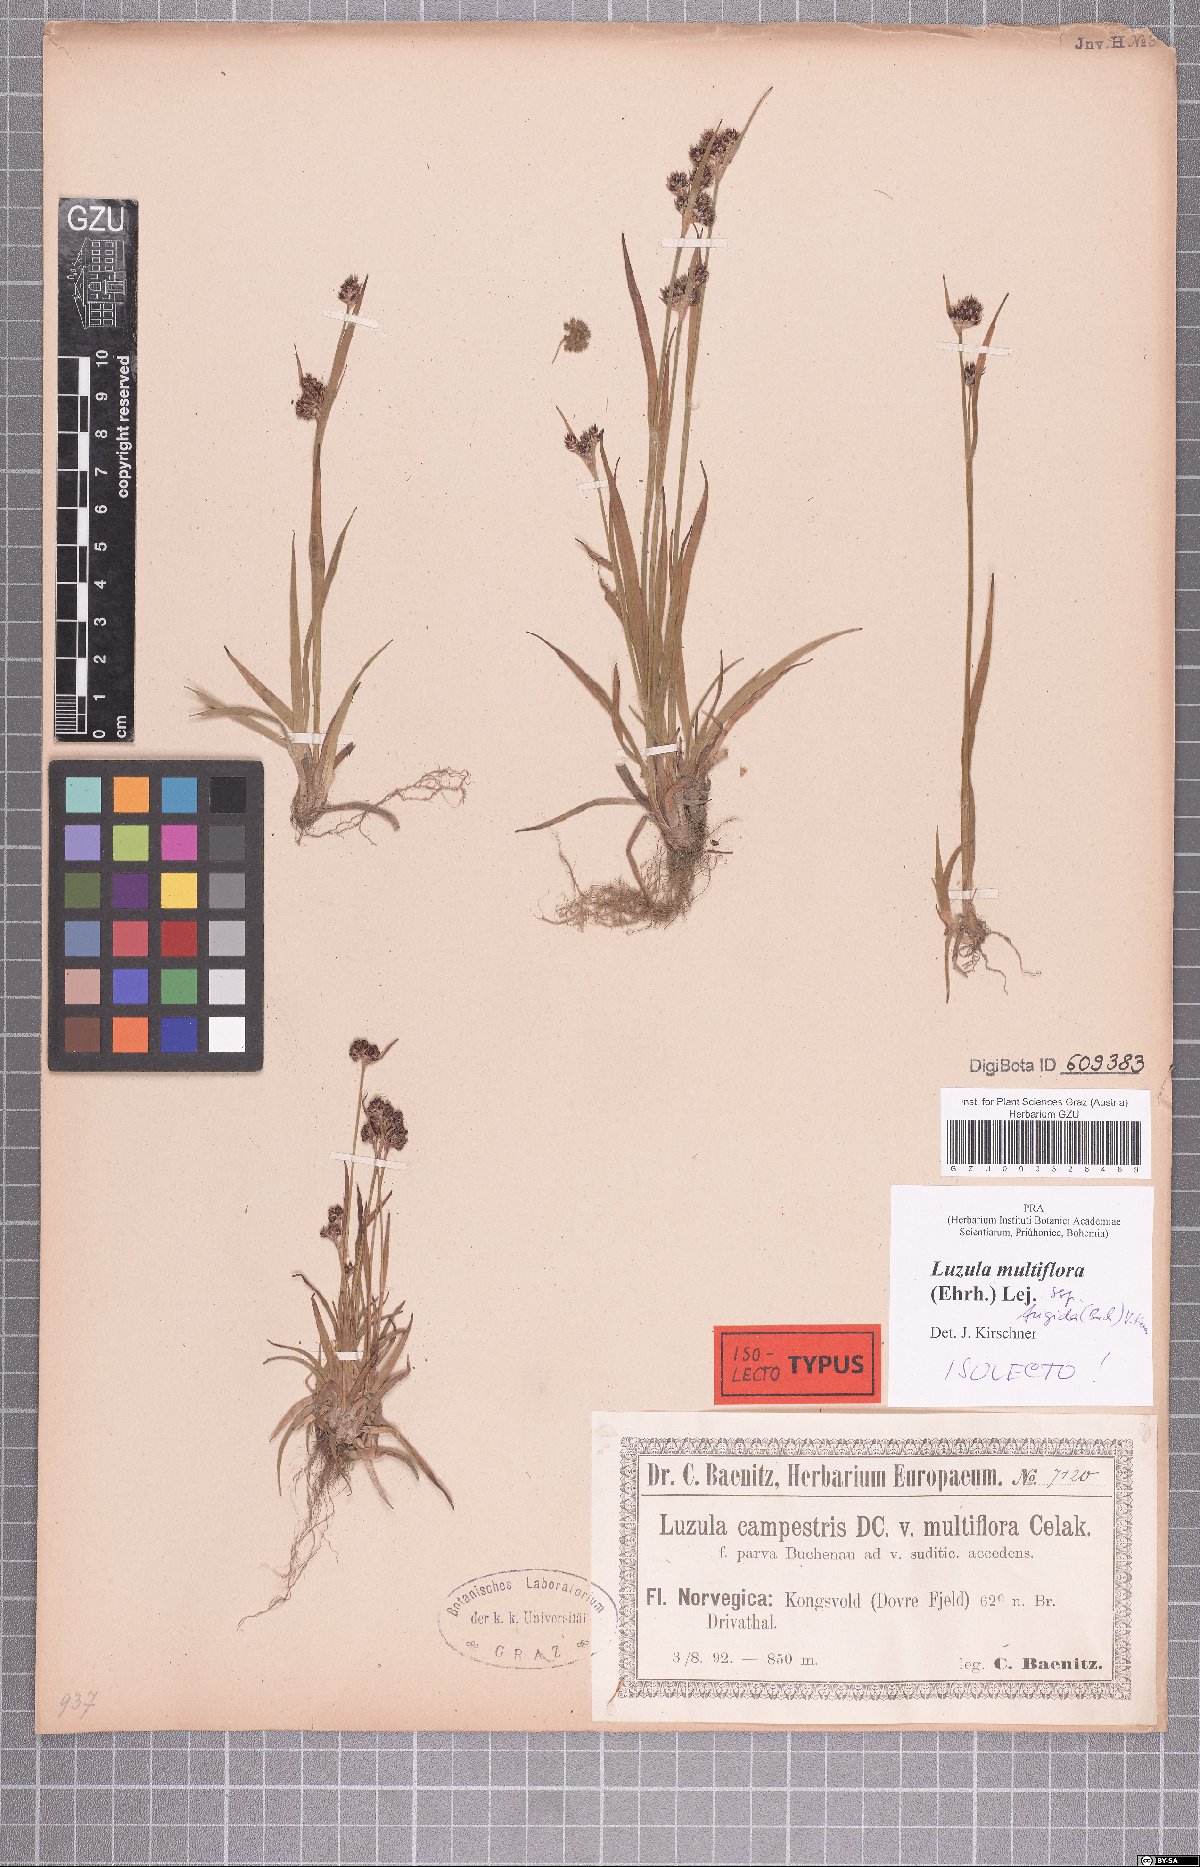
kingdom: Plantae
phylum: Tracheophyta
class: Liliopsida
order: Poales
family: Juncaceae
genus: Luzula
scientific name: Luzula multiflora
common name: Heath wood-rush
